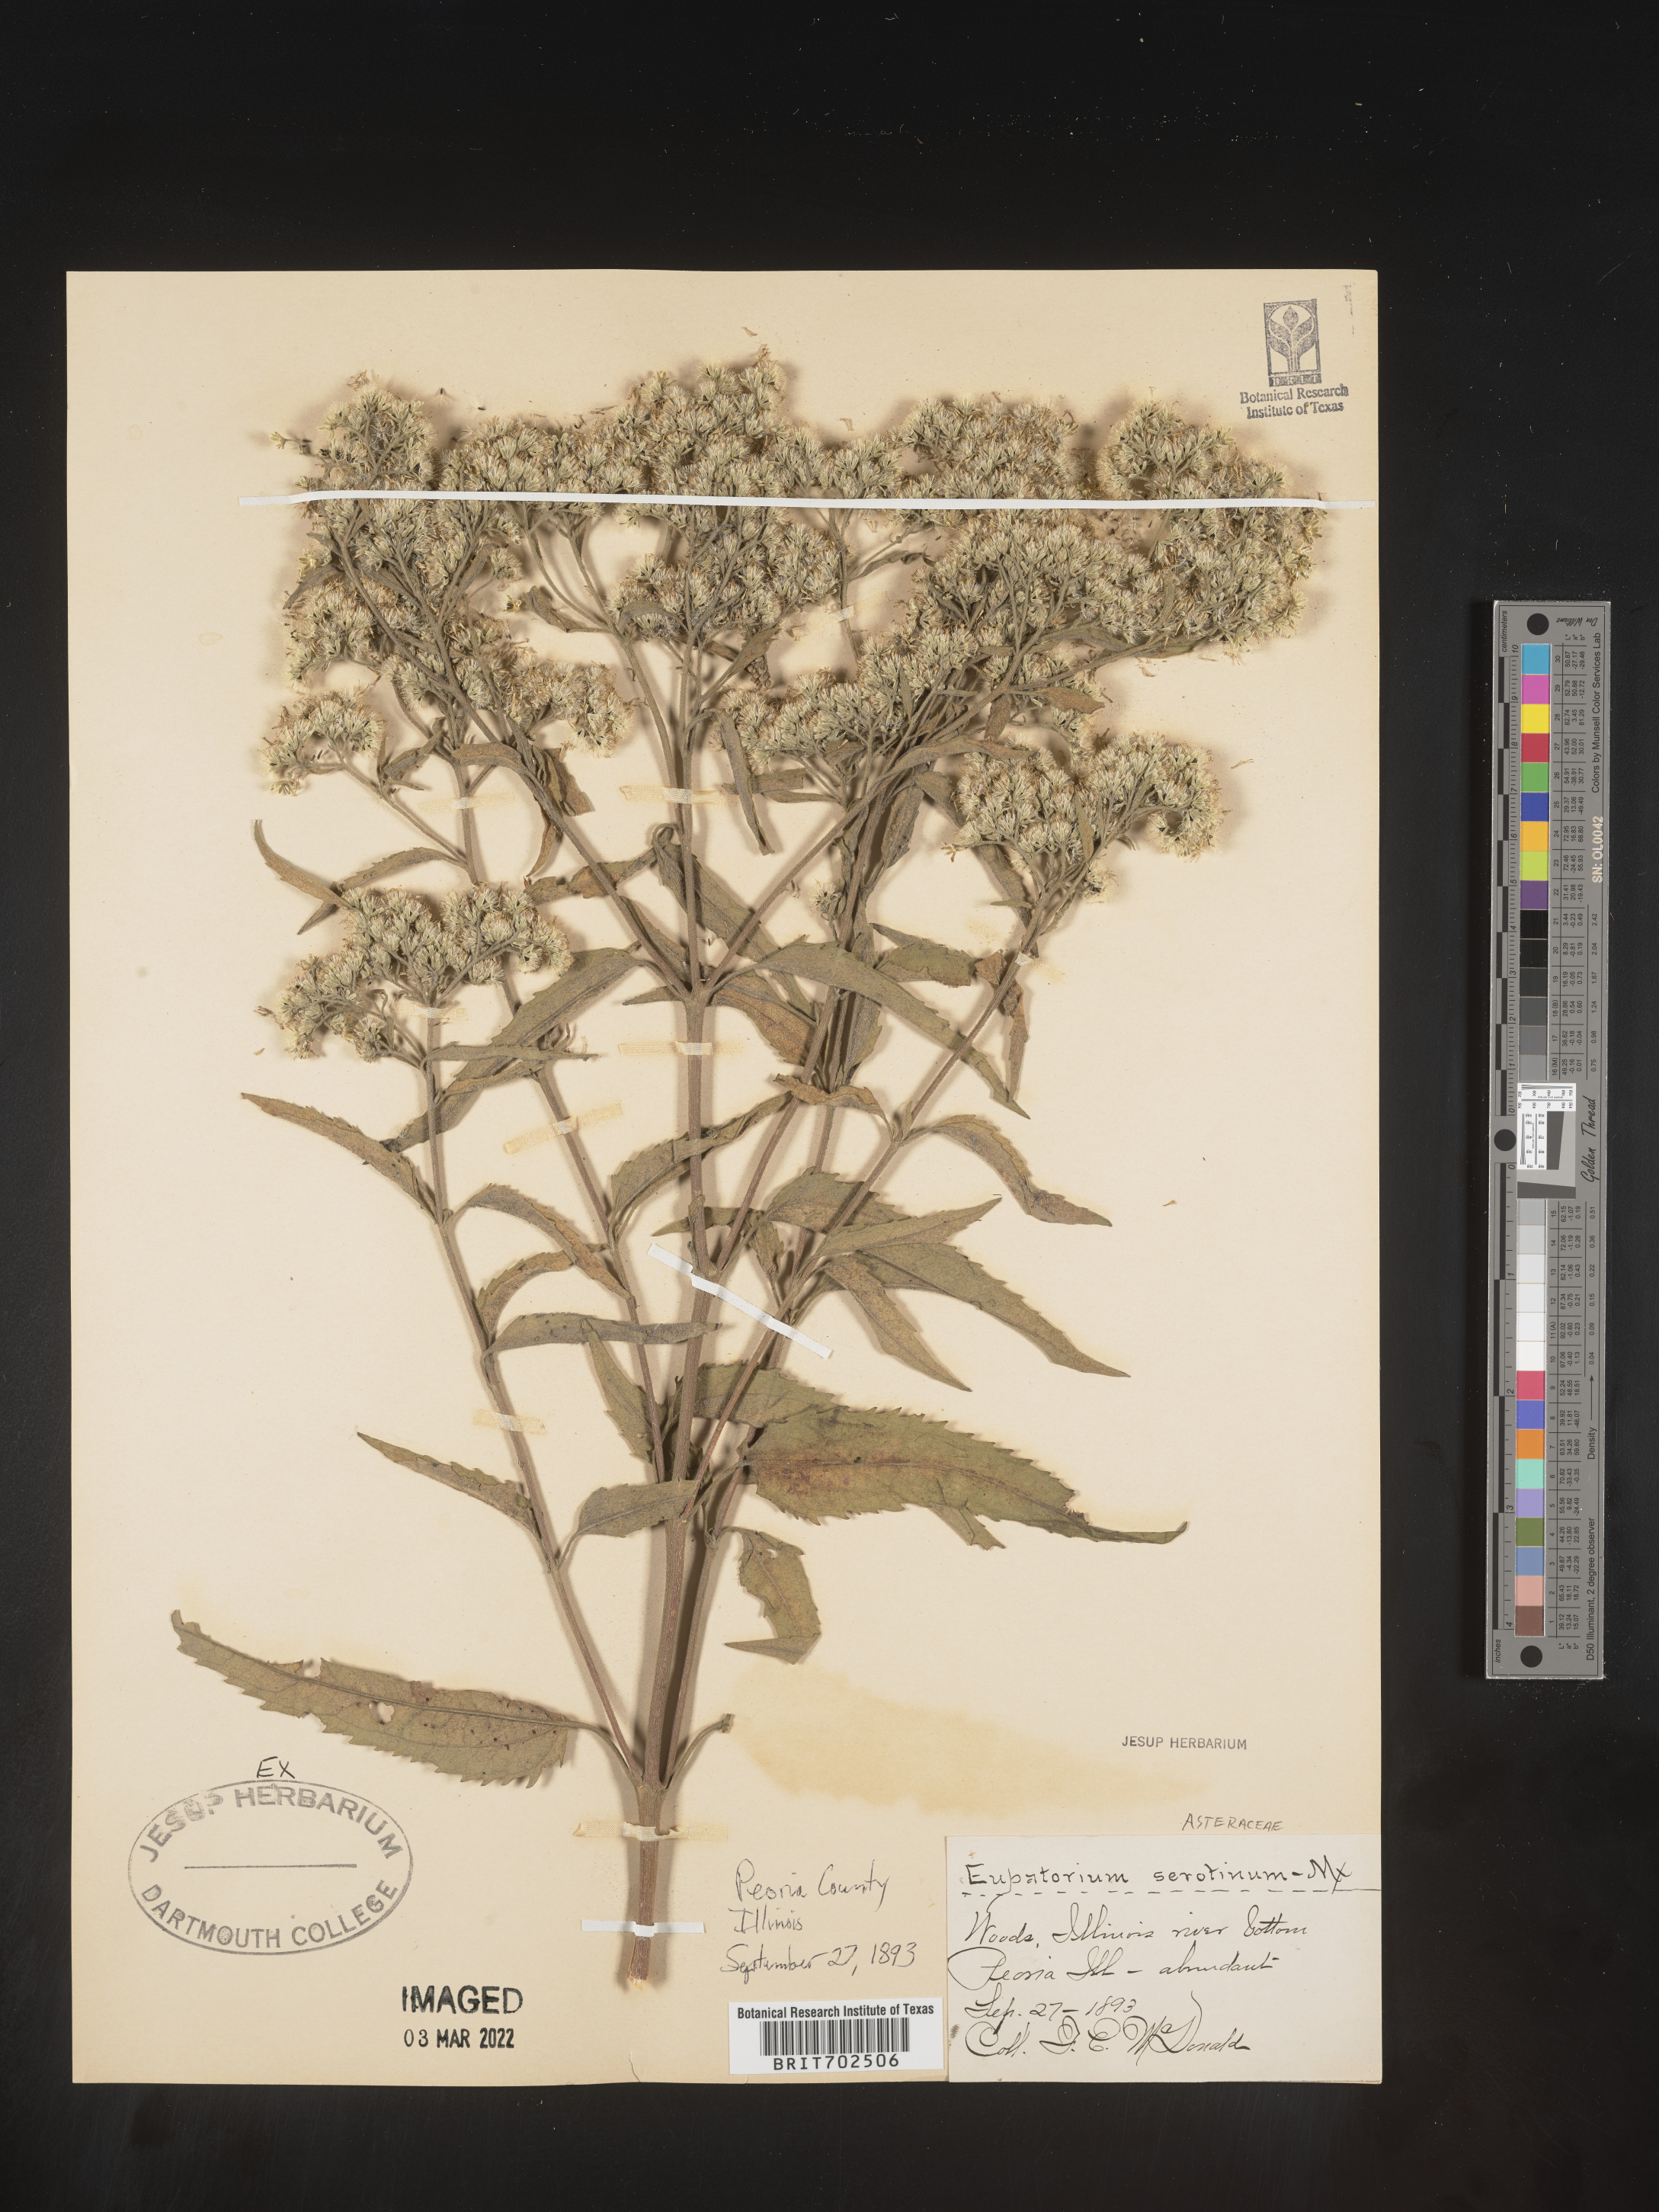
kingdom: Plantae
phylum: Tracheophyta
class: Magnoliopsida
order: Asterales
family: Asteraceae
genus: Eupatorium
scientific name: Eupatorium serotinum
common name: Late boneset
